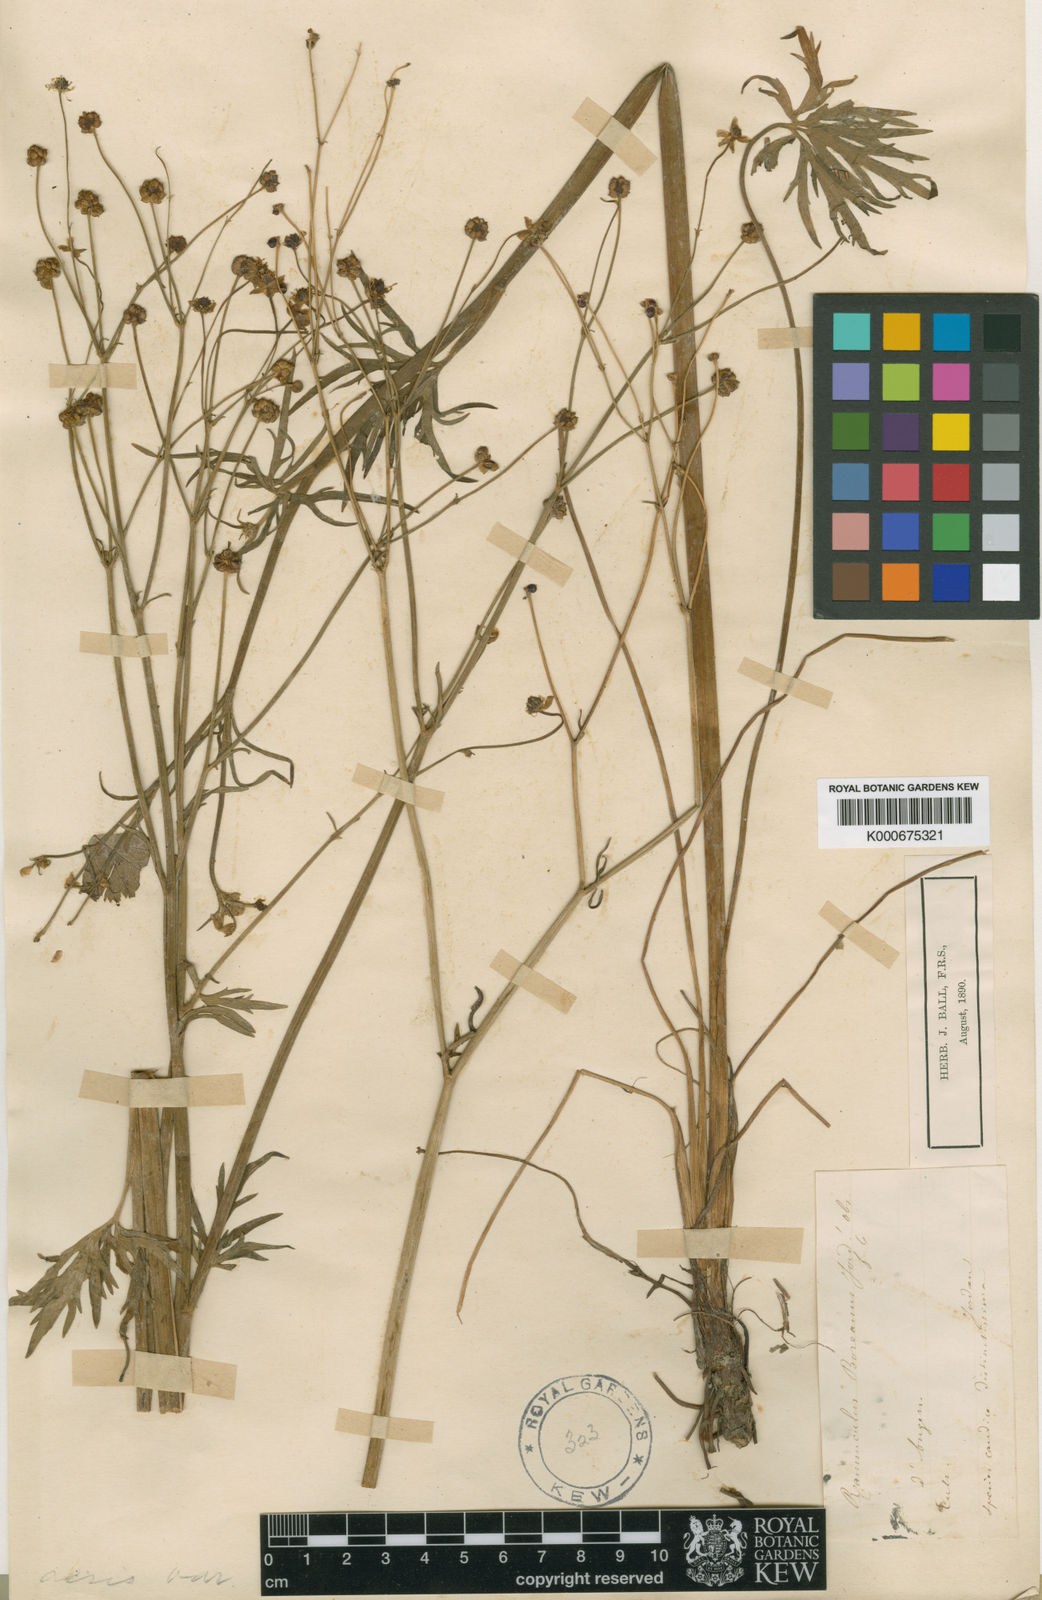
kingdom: Plantae
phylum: Tracheophyta
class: Magnoliopsida
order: Ranunculales
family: Ranunculaceae
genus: Ranunculus
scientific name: Ranunculus acris
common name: Meadow buttercup
